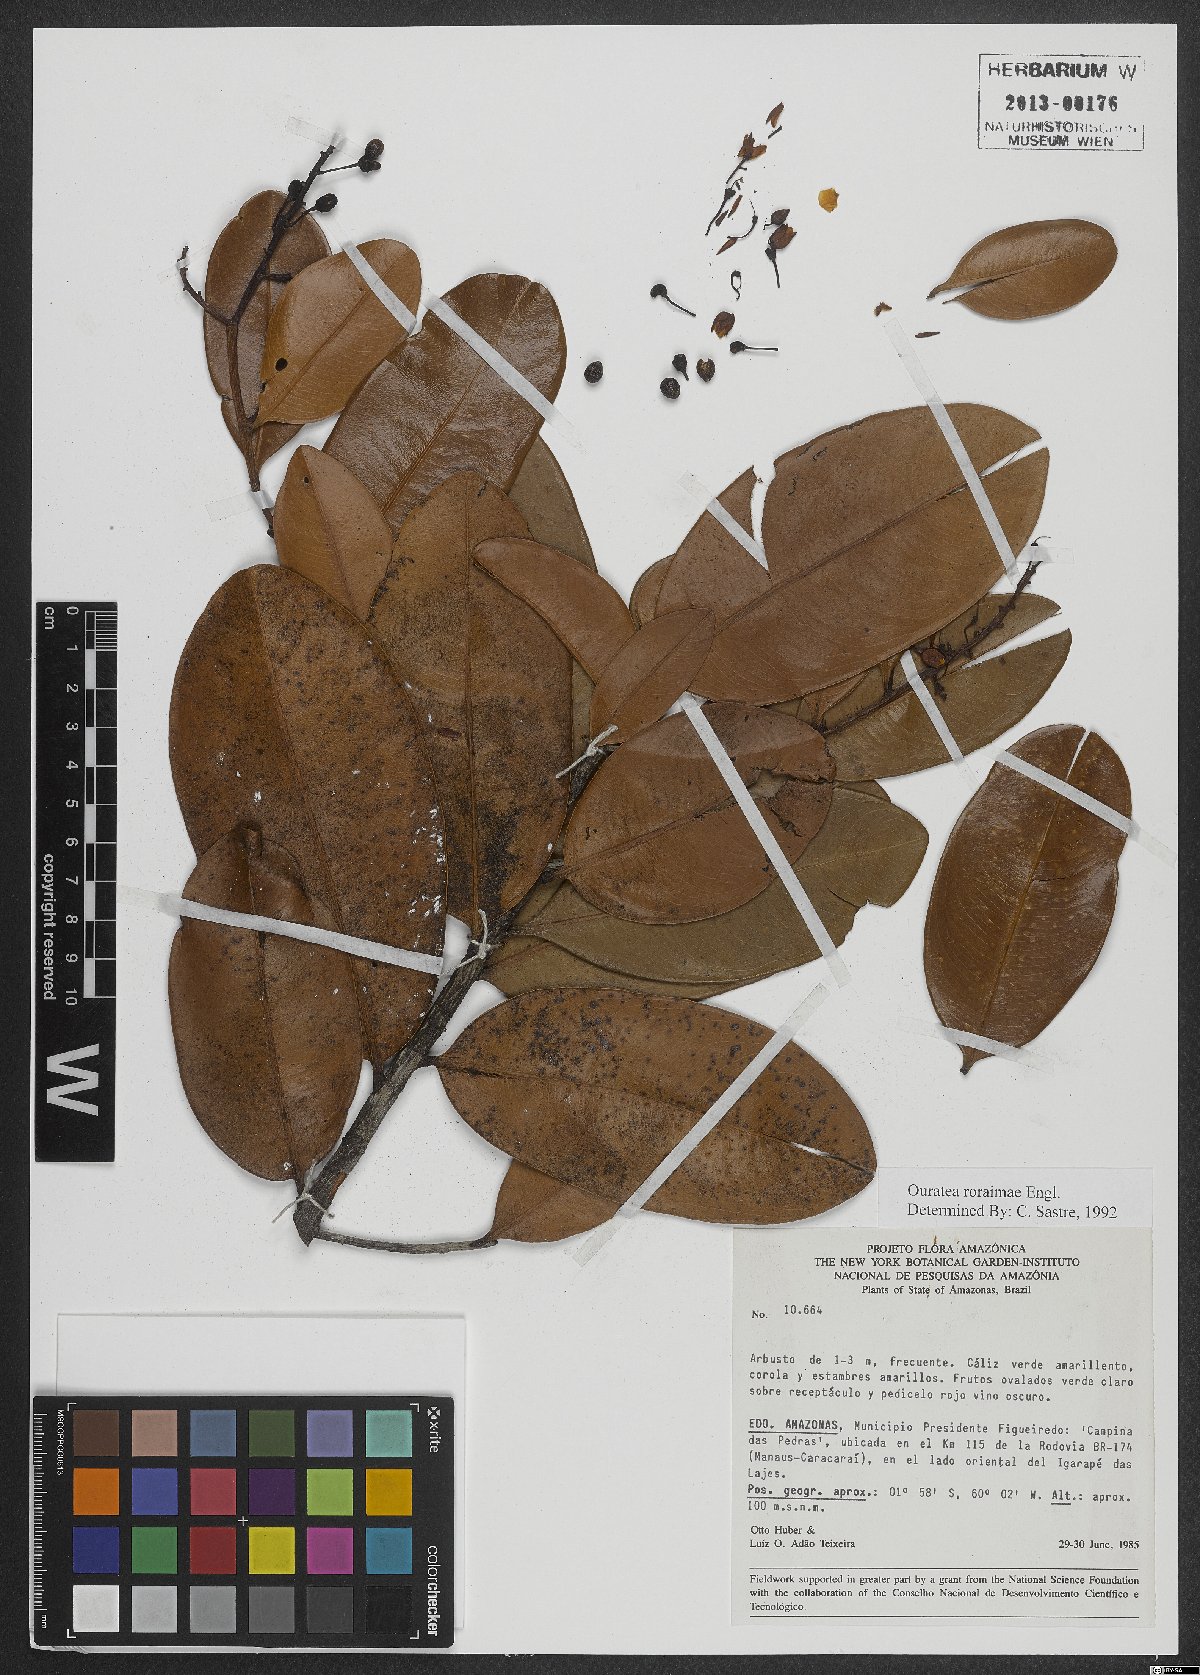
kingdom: Plantae
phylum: Tracheophyta
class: Magnoliopsida
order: Malpighiales
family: Ochnaceae
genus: Ouratea
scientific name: Ouratea roraimae
